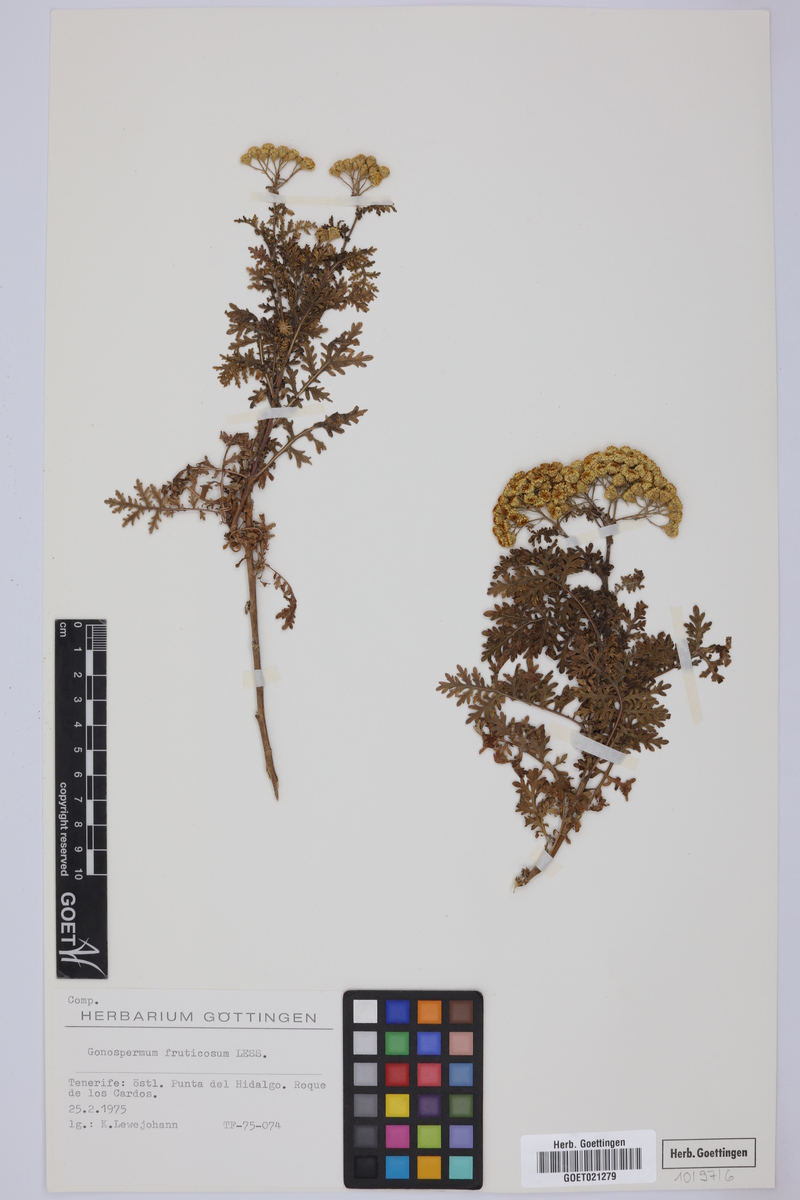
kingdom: Plantae
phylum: Tracheophyta
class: Magnoliopsida
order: Asterales
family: Asteraceae
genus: Gonospermum
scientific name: Gonospermum fruticosum
